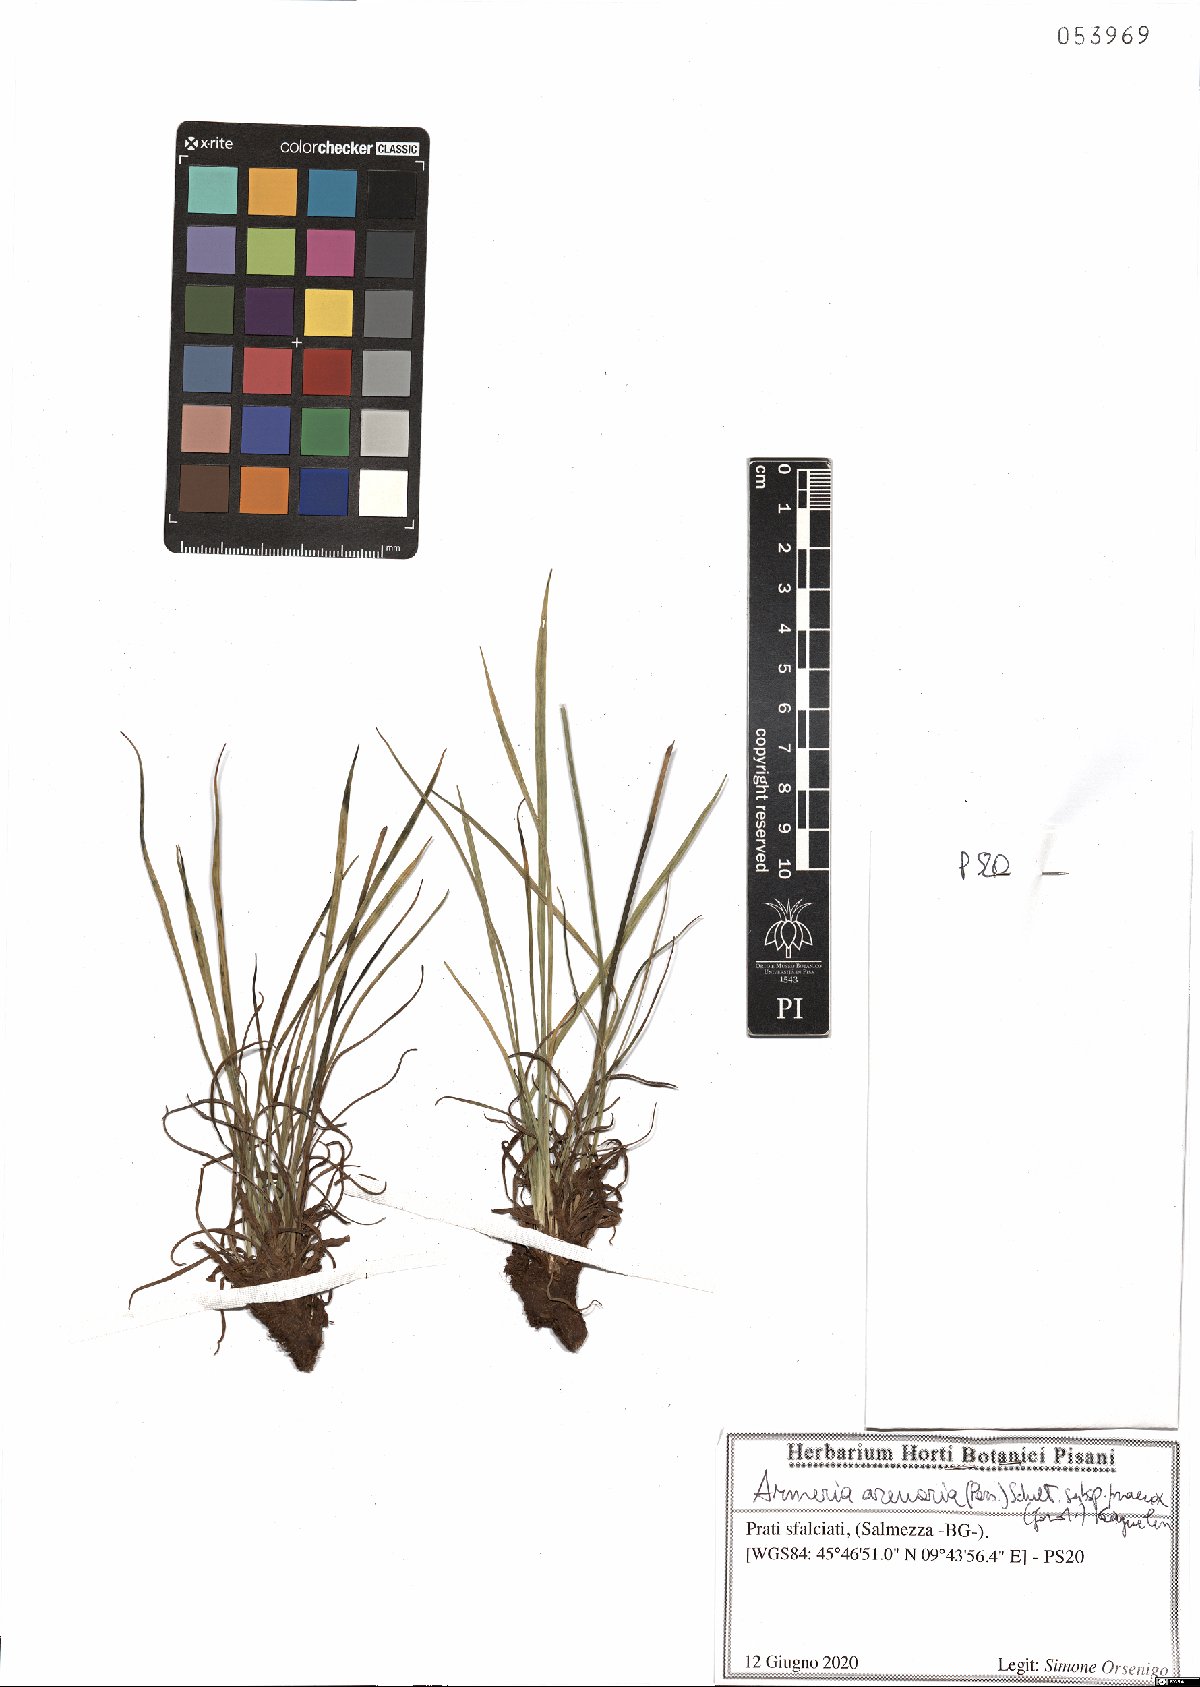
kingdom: Plantae
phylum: Tracheophyta
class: Magnoliopsida
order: Caryophyllales
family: Plumbaginaceae
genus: Armeria
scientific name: Armeria arenaria
